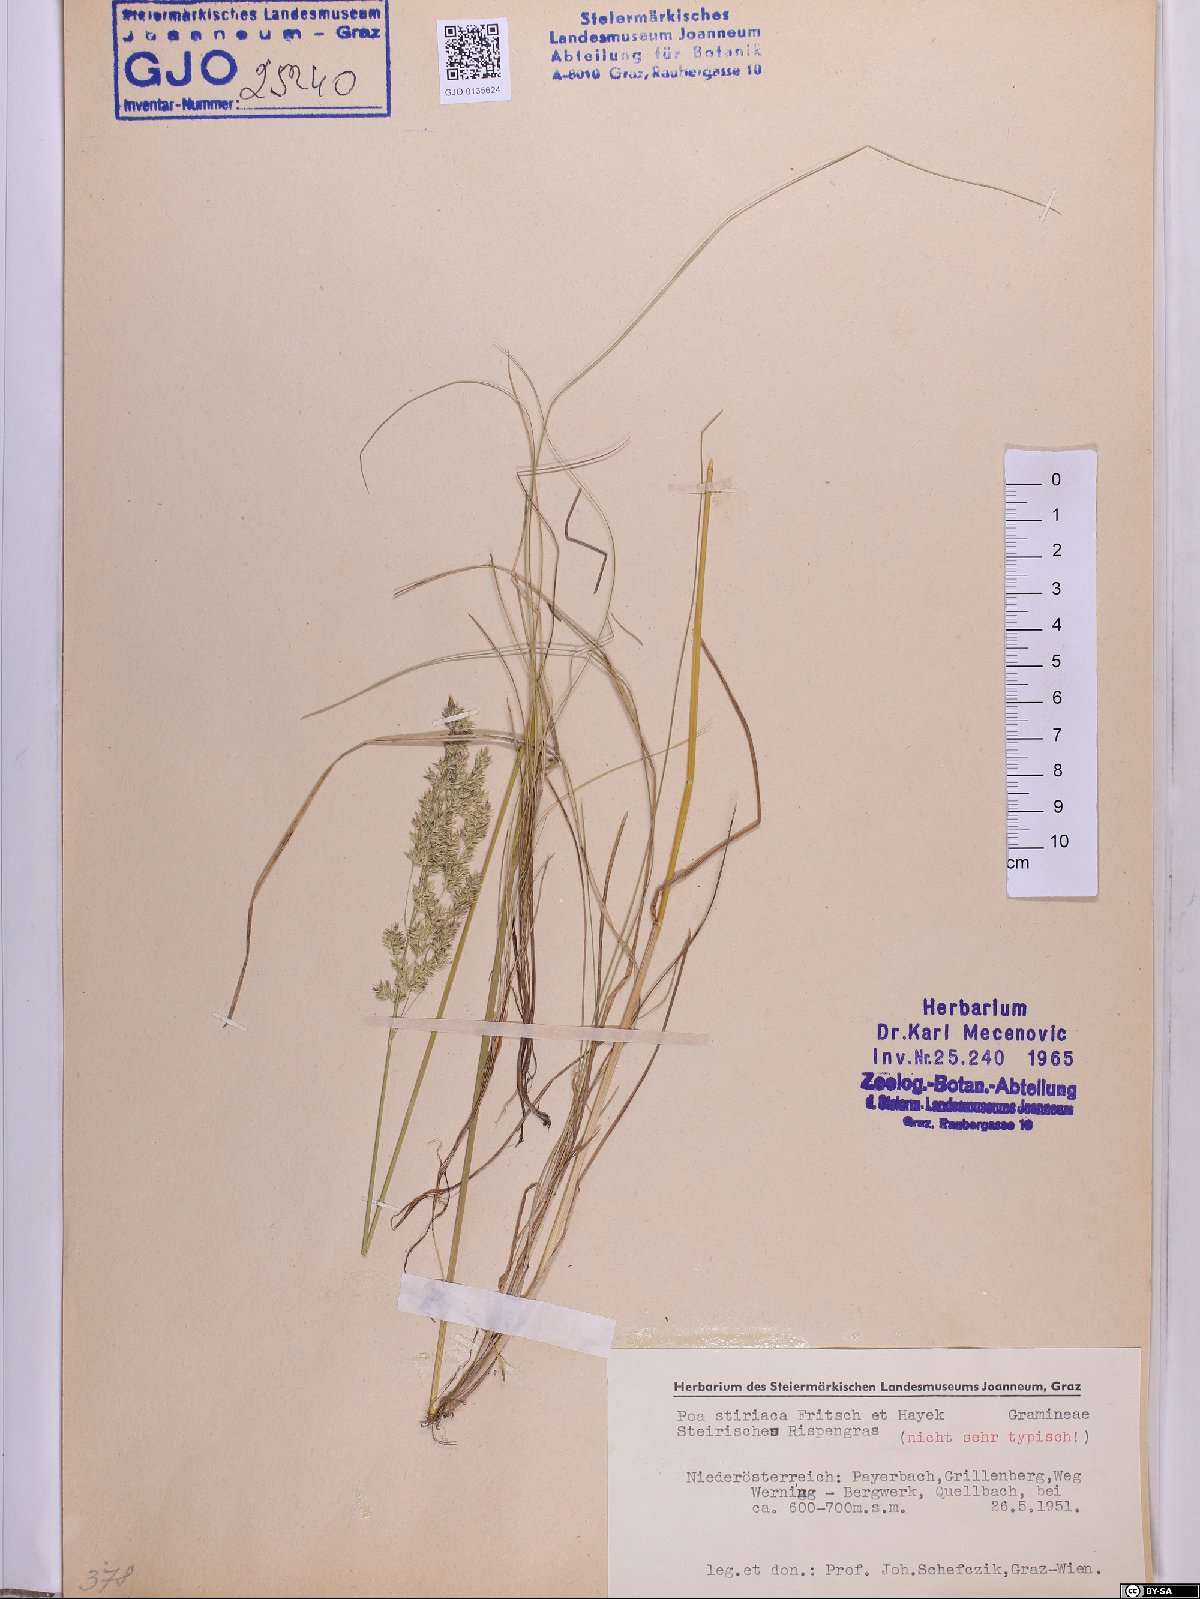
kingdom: Plantae
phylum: Tracheophyta
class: Liliopsida
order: Poales
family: Poaceae
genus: Poa
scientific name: Poa stiriaca
